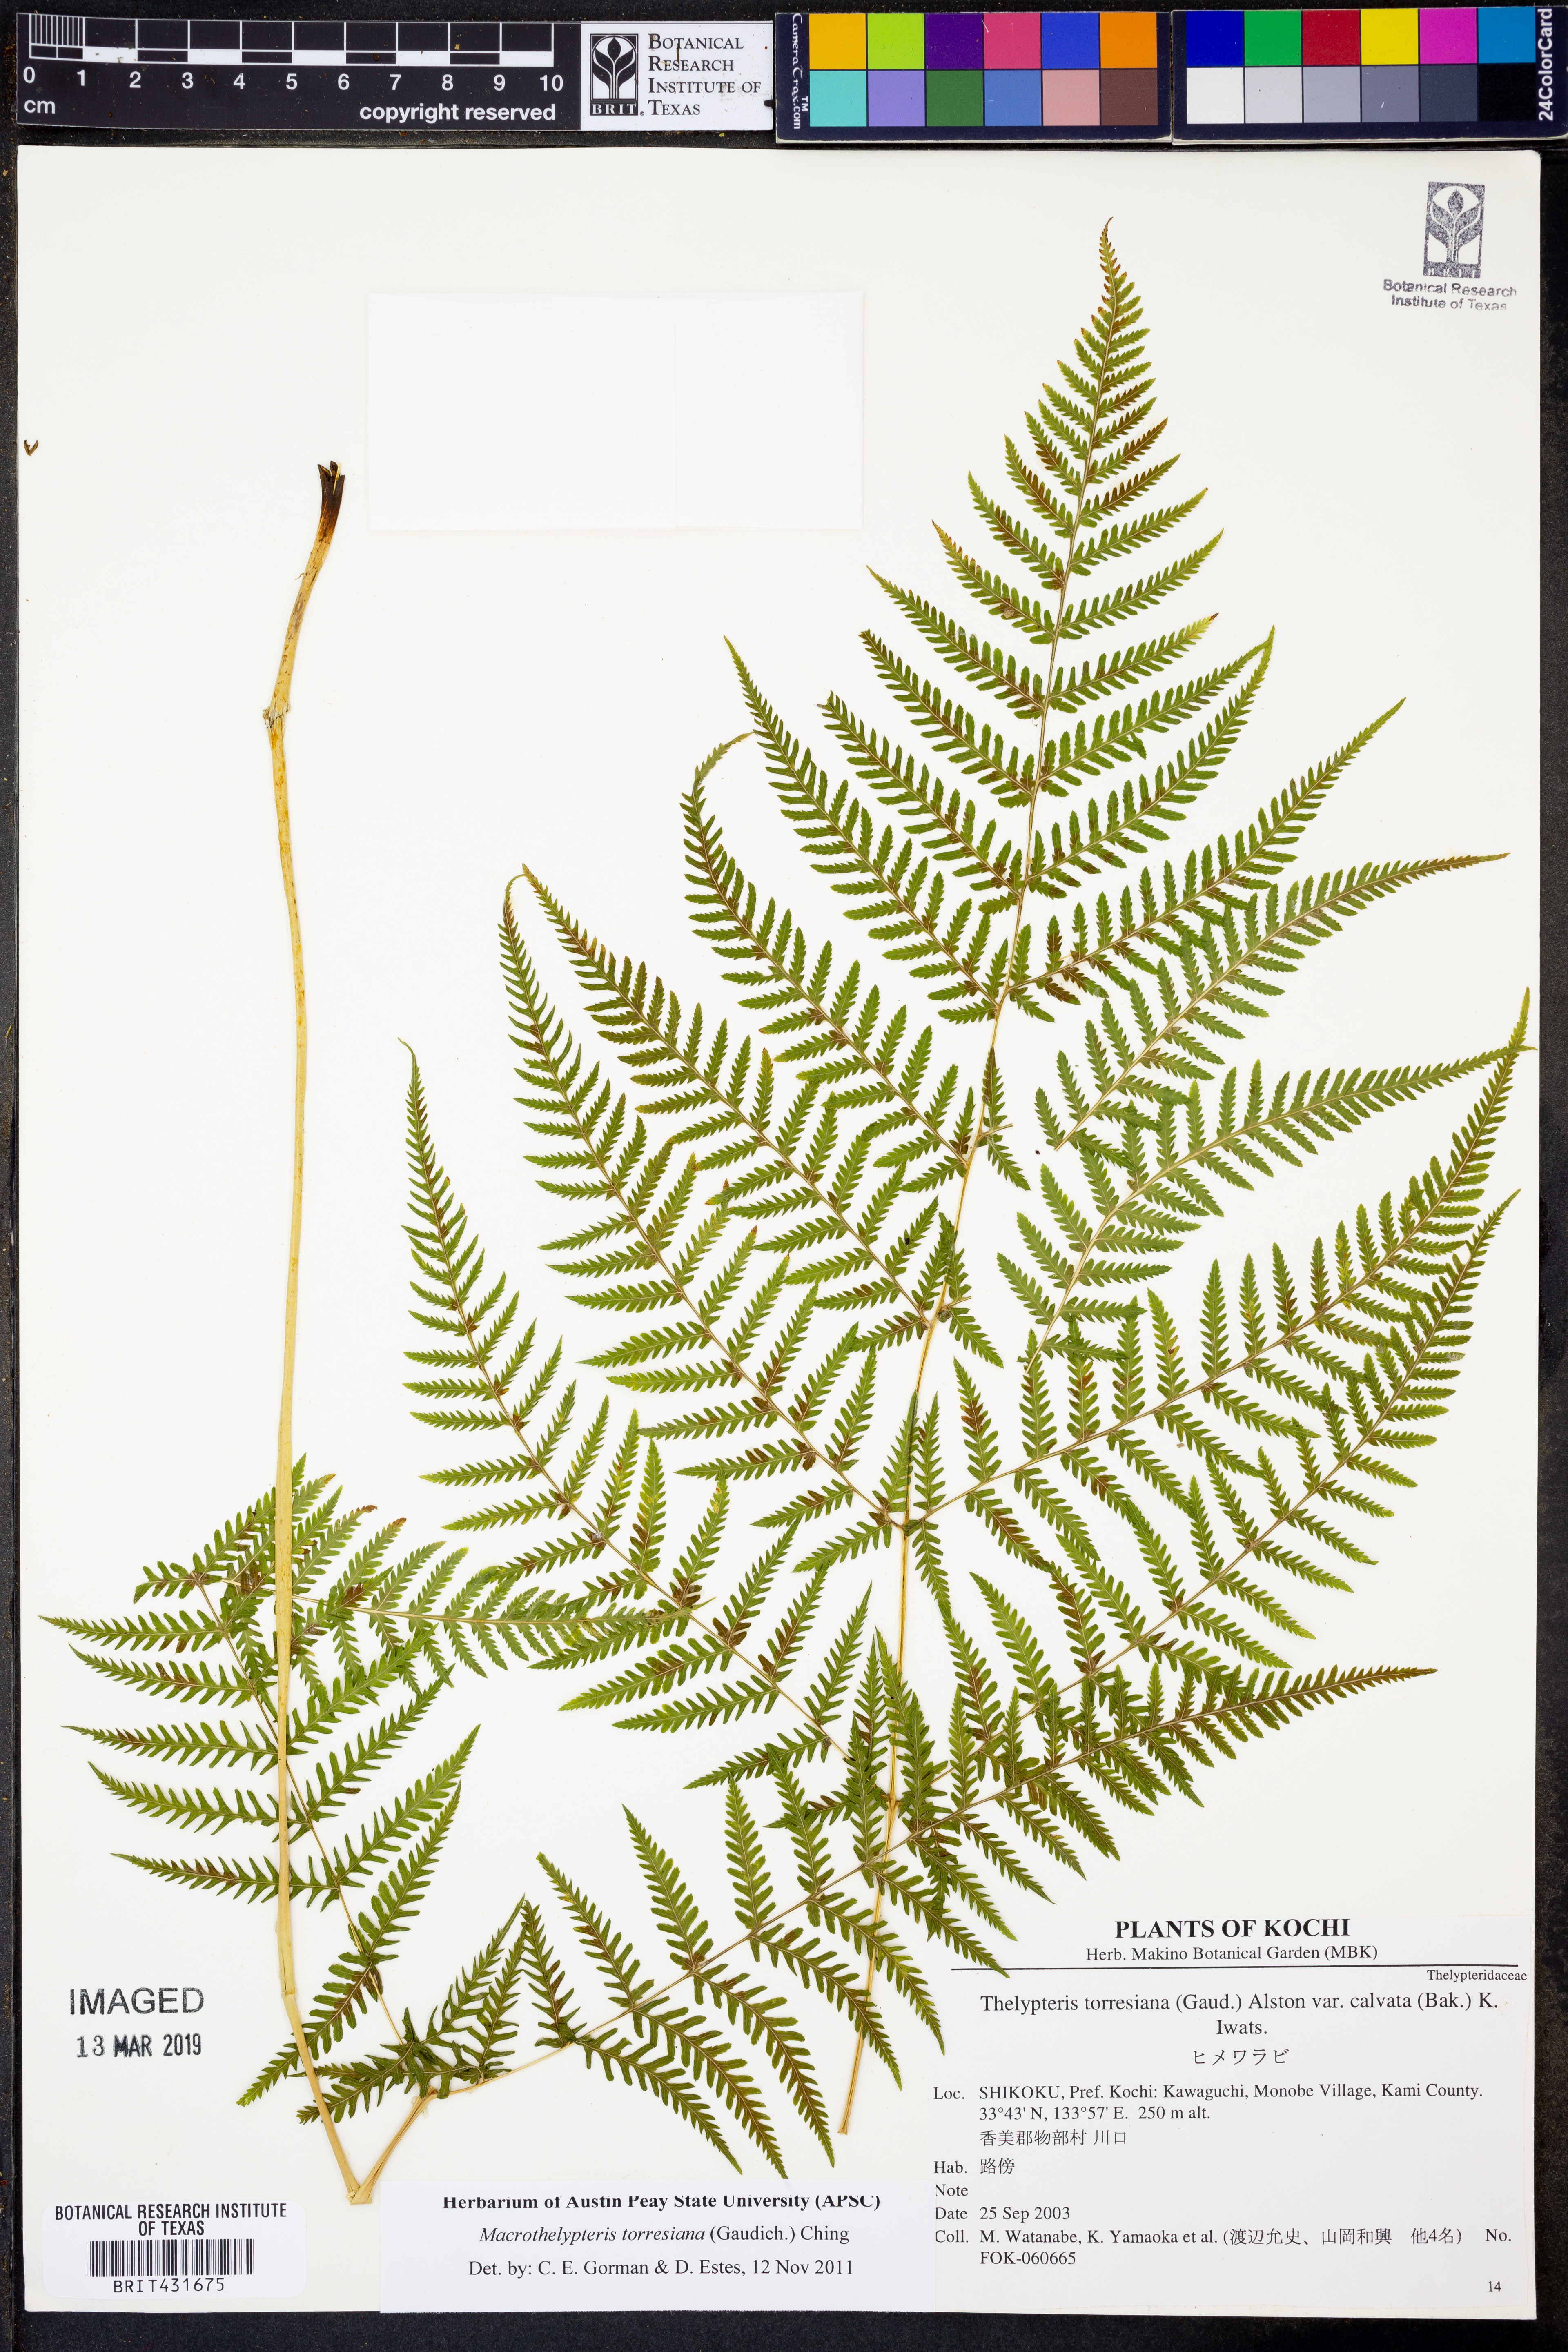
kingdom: Plantae
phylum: Tracheophyta
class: Polypodiopsida
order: Polypodiales
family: Thelypteridaceae
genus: Macrothelypteris
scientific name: Macrothelypteris torresiana
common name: Swordfern
